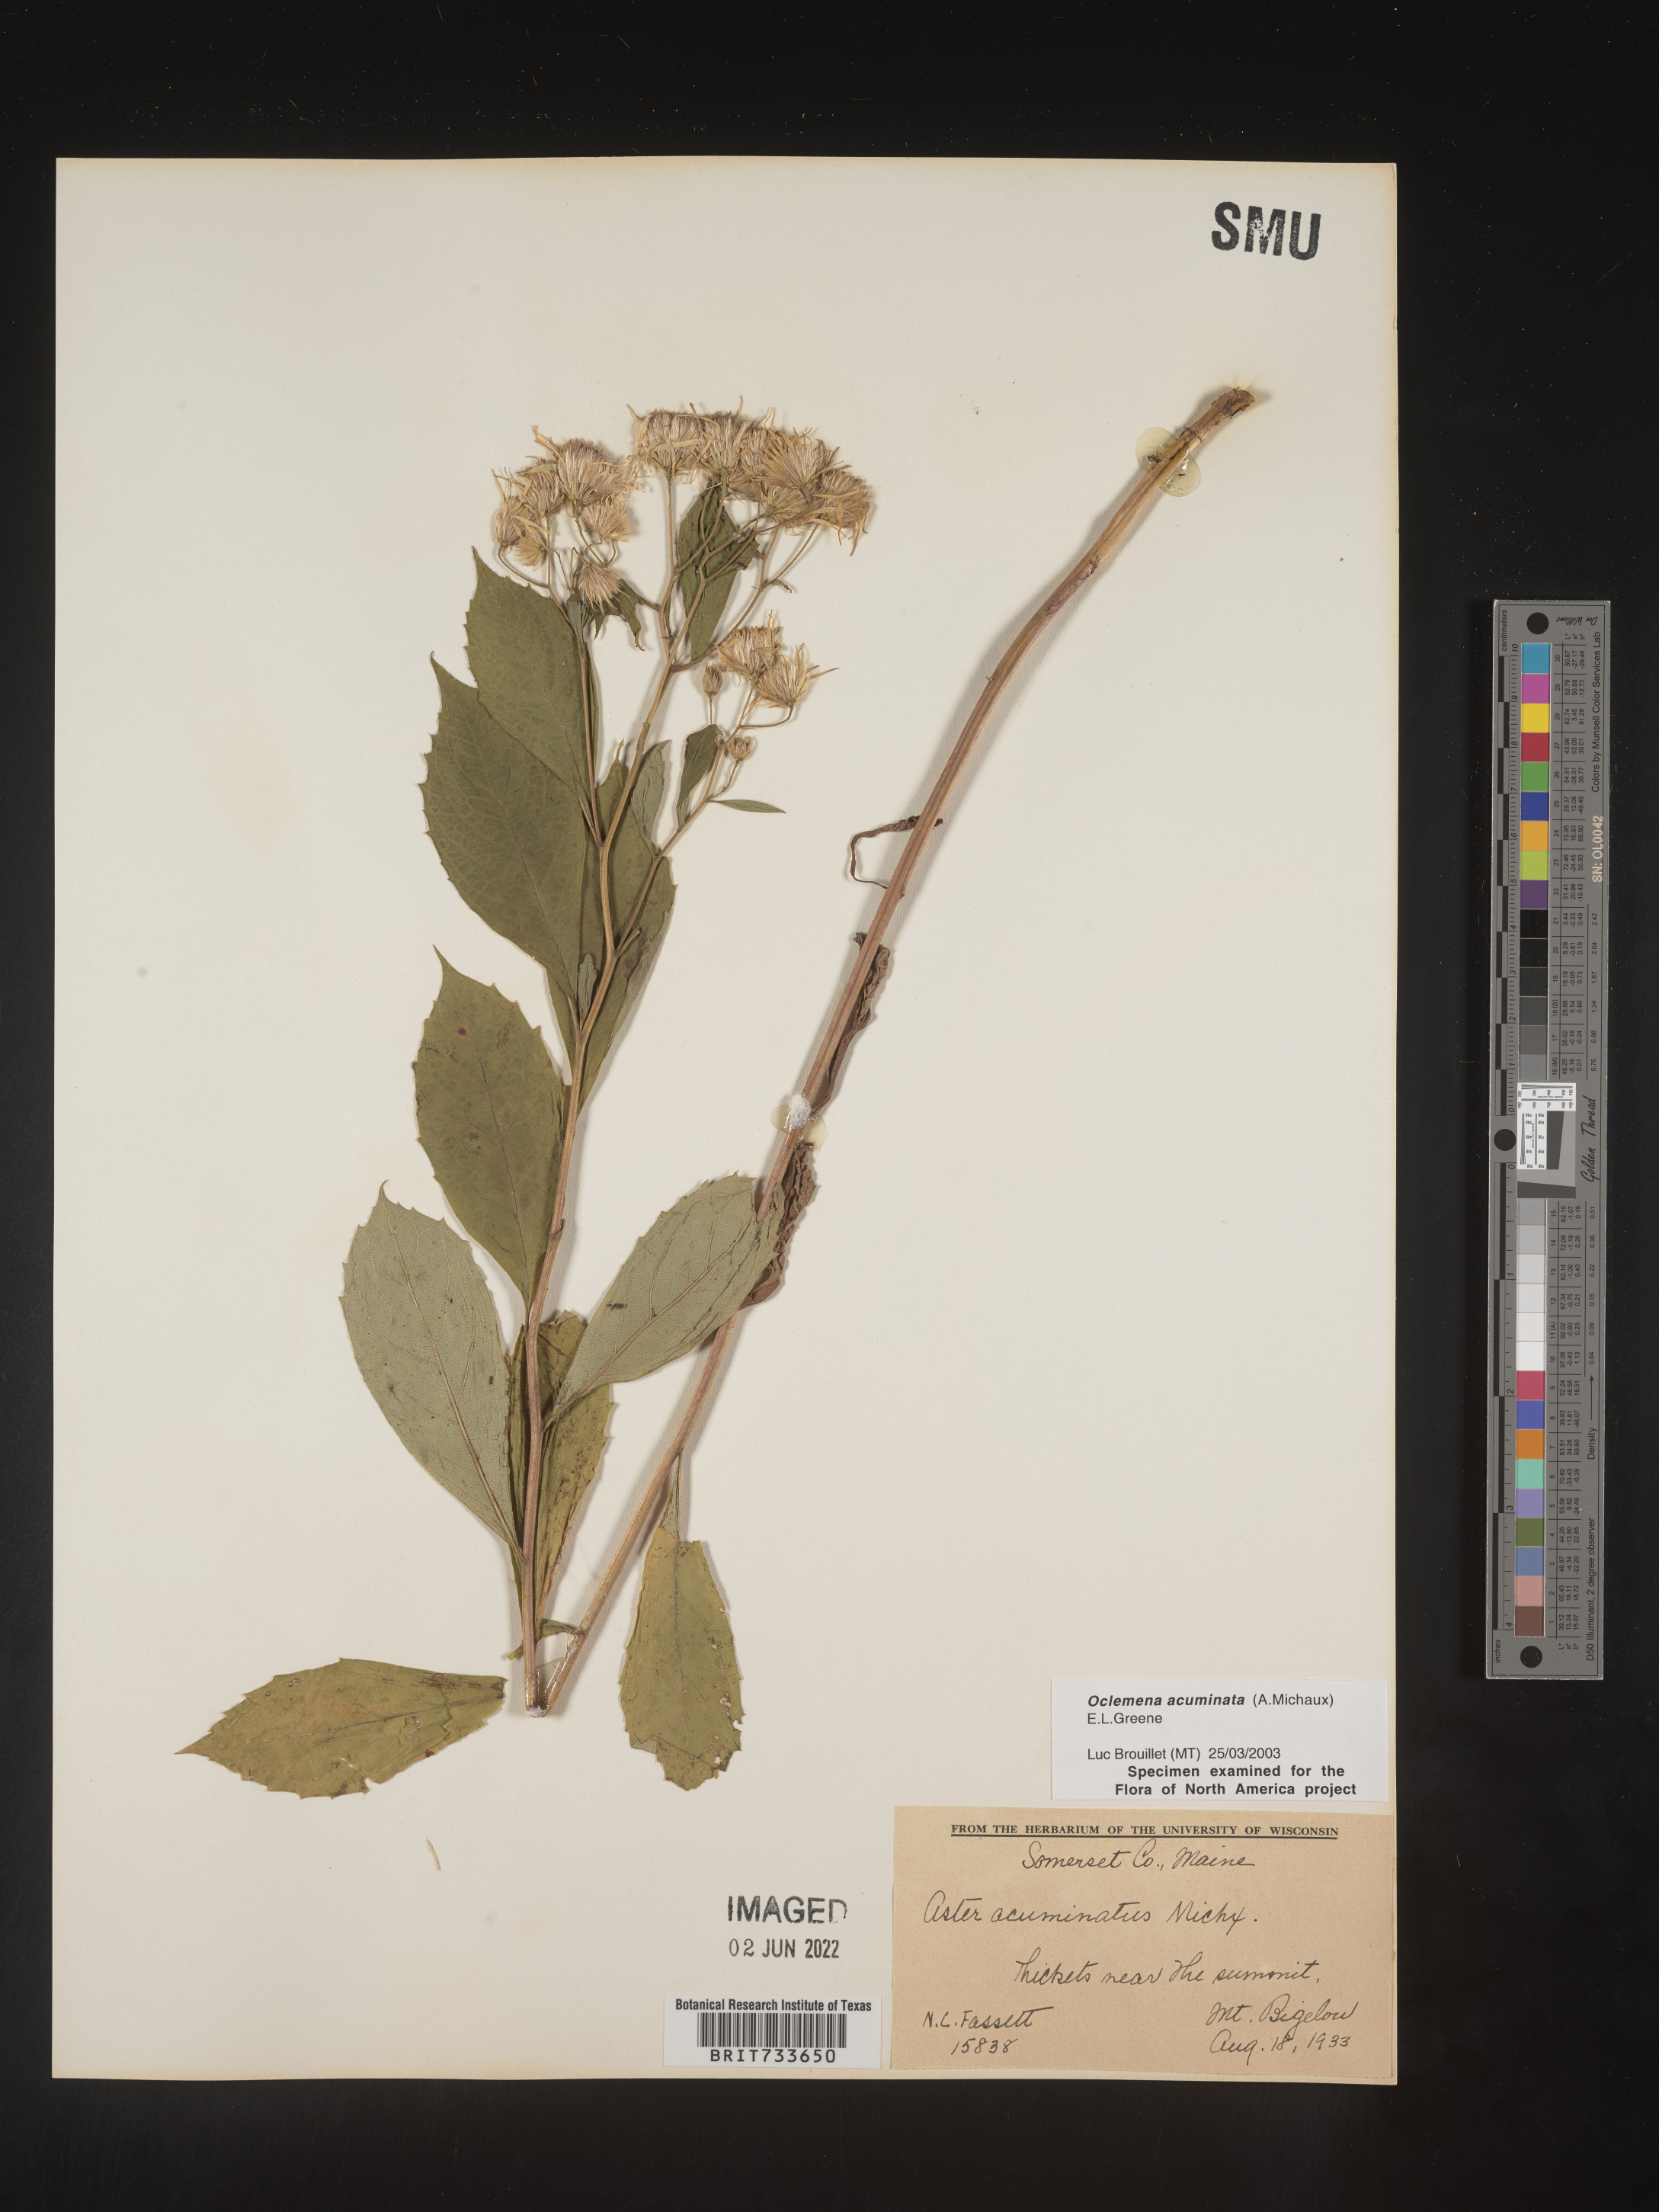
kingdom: Plantae
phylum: Tracheophyta
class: Magnoliopsida
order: Asterales
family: Asteraceae
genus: Oclemena
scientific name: Oclemena acuminata
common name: Mountain aster
